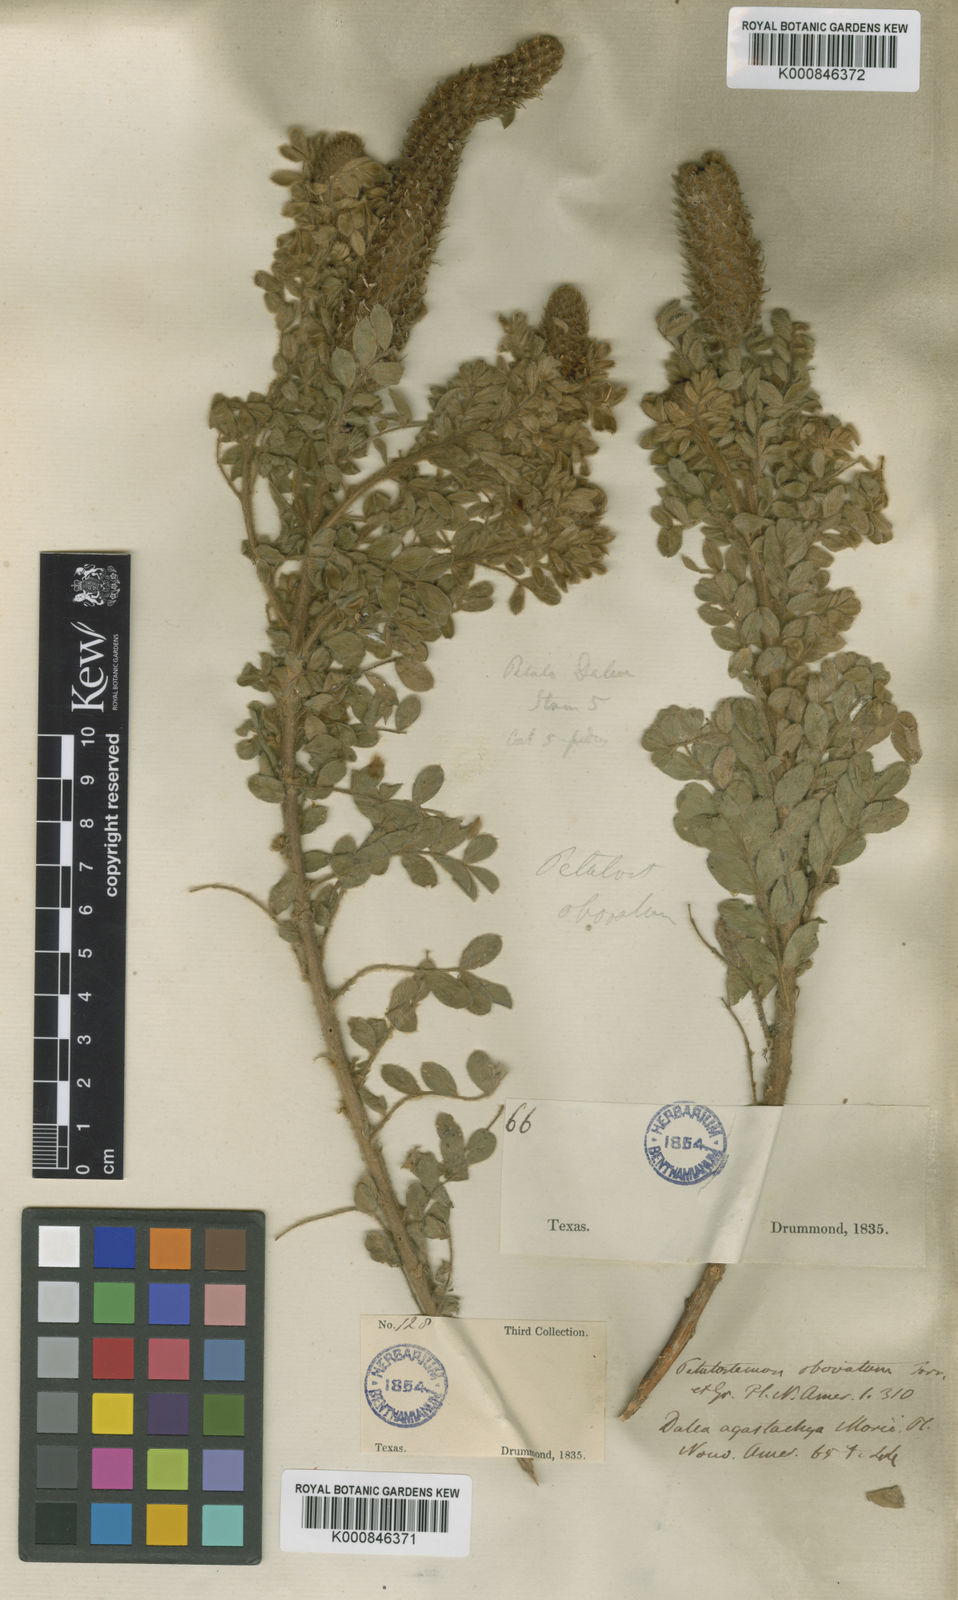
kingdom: Plantae
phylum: Tracheophyta
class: Magnoliopsida
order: Fabales
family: Fabaceae
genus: Dalea
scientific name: Dalea obovata
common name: Pussyfoot
